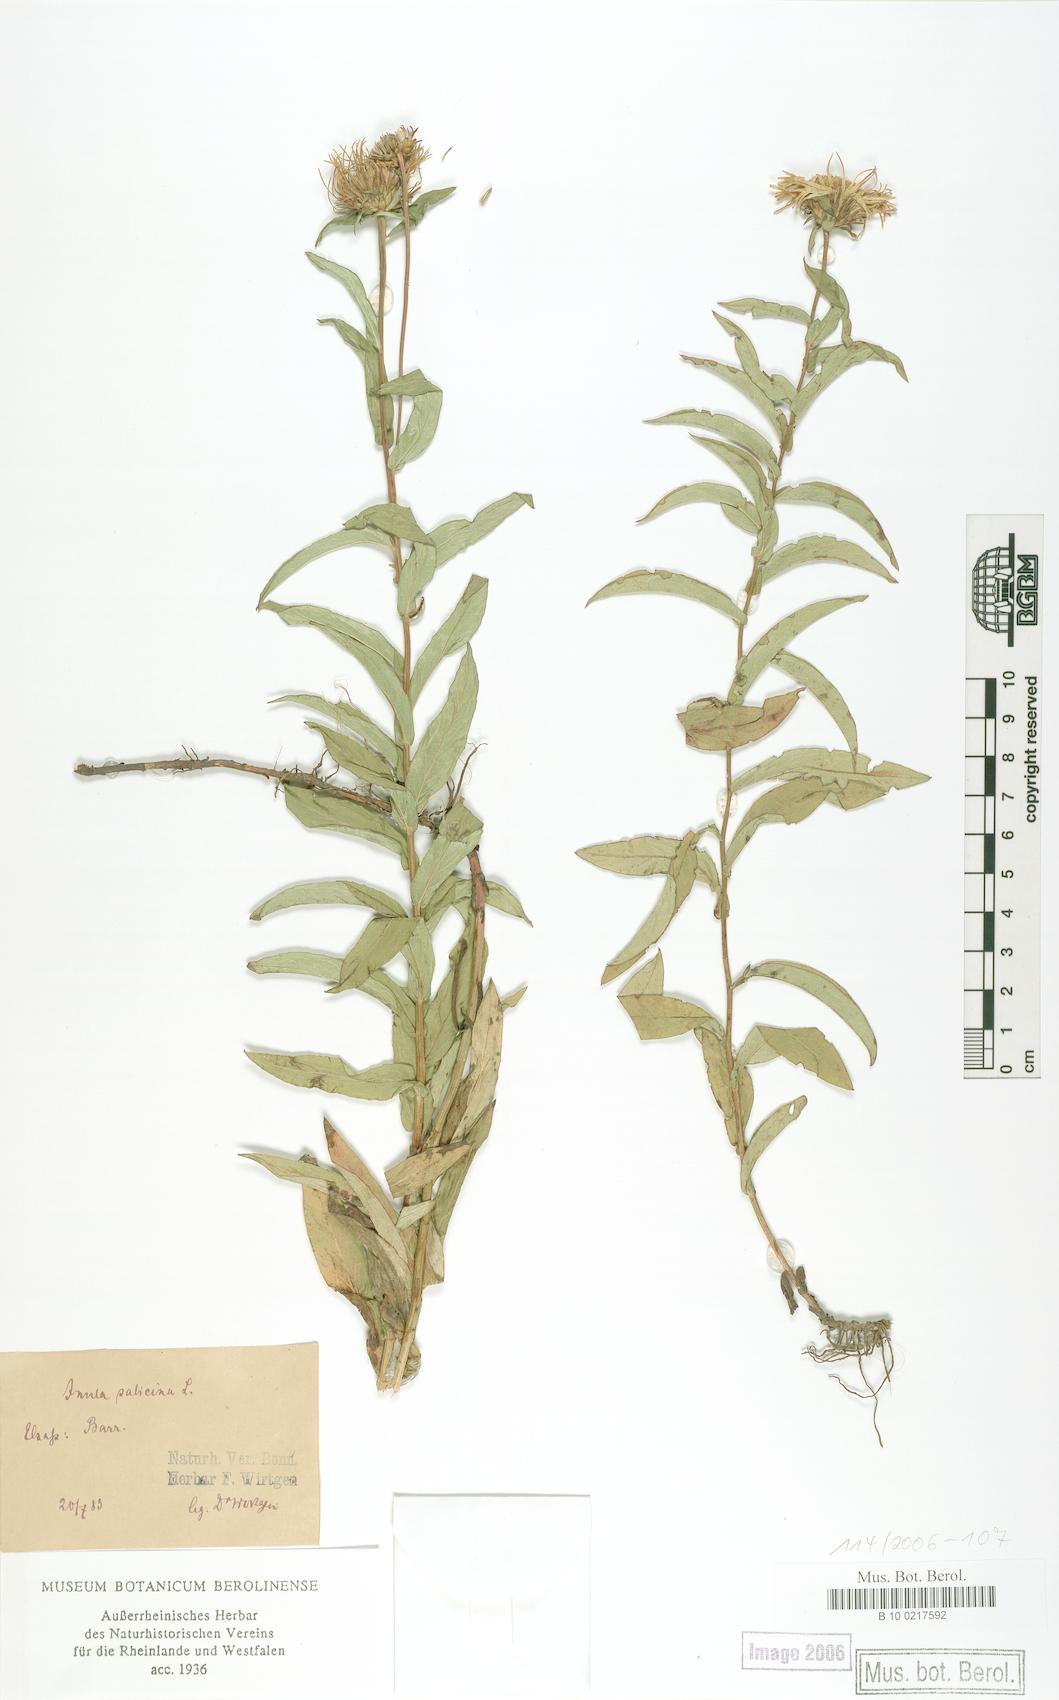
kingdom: Plantae
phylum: Tracheophyta
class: Magnoliopsida
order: Asterales
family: Asteraceae
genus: Pentanema
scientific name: Pentanema salicinum
